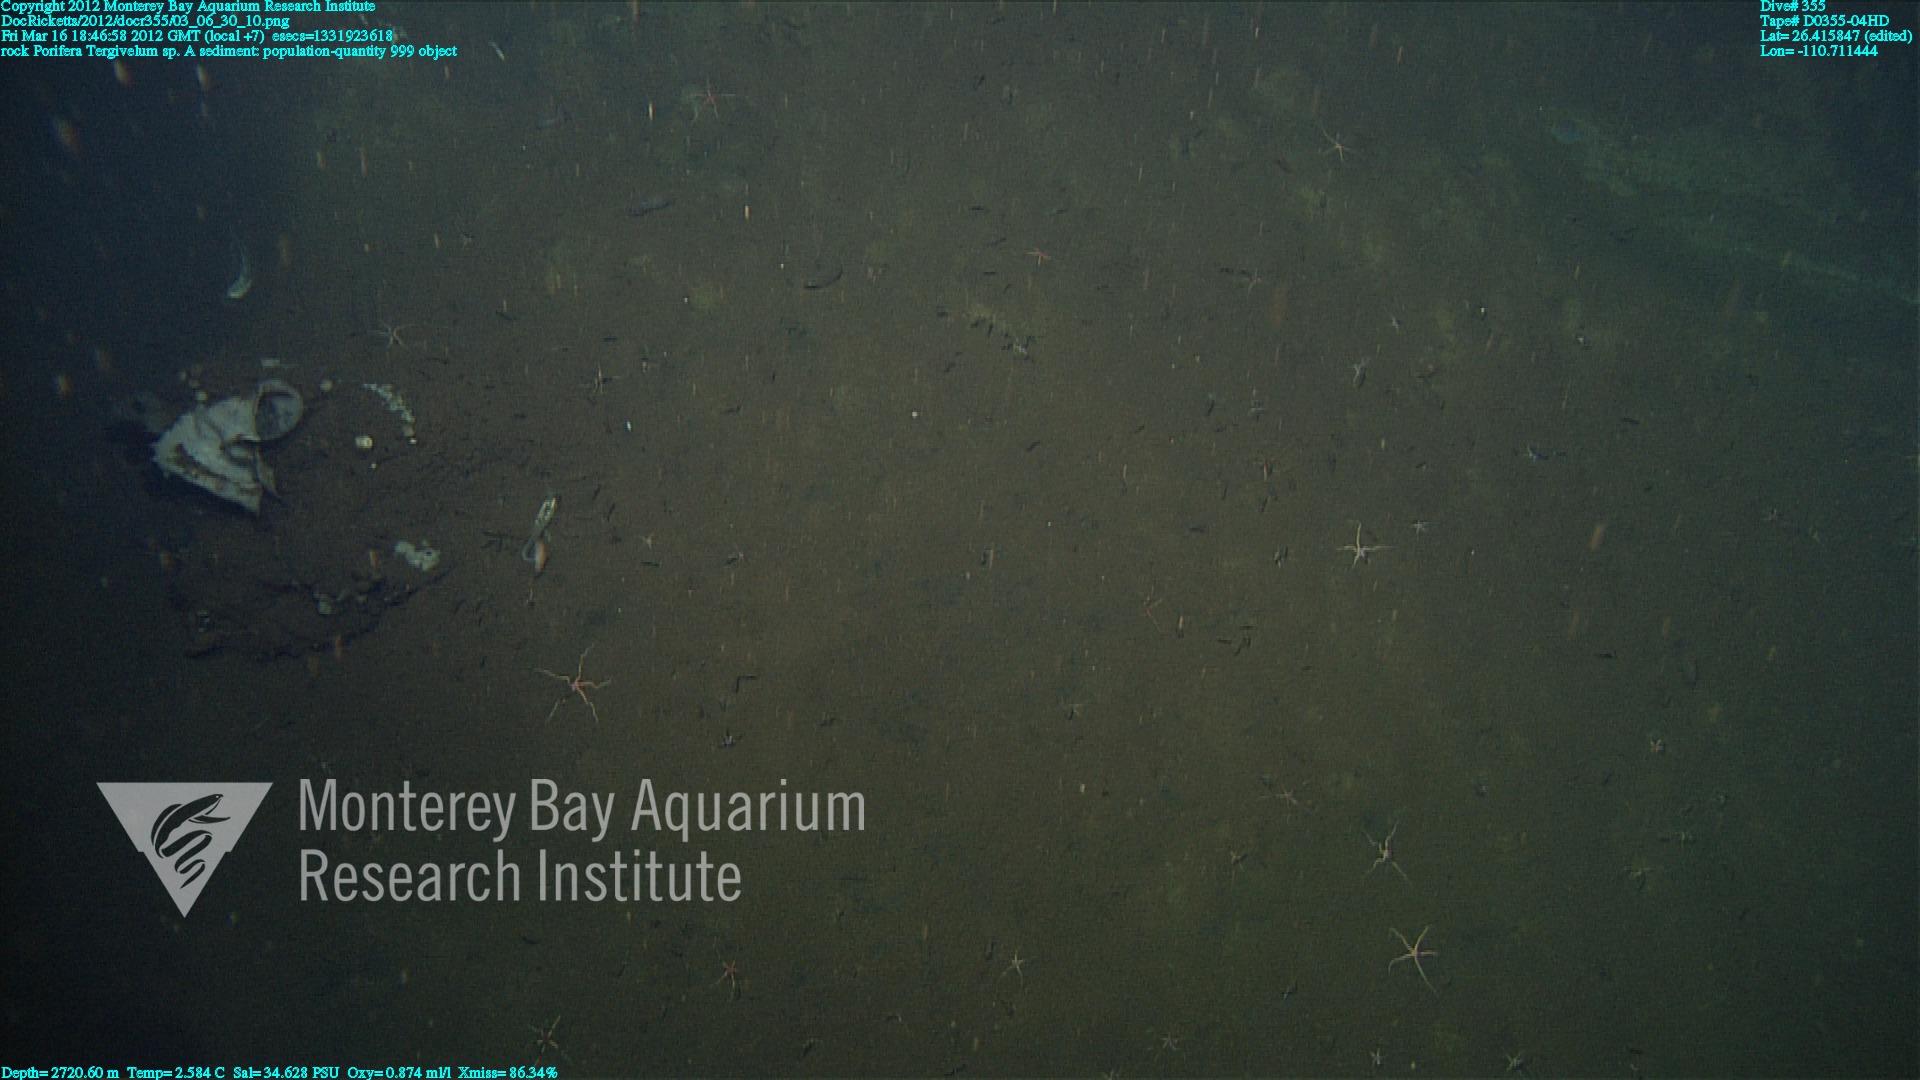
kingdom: Animalia
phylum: Porifera
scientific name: Porifera
